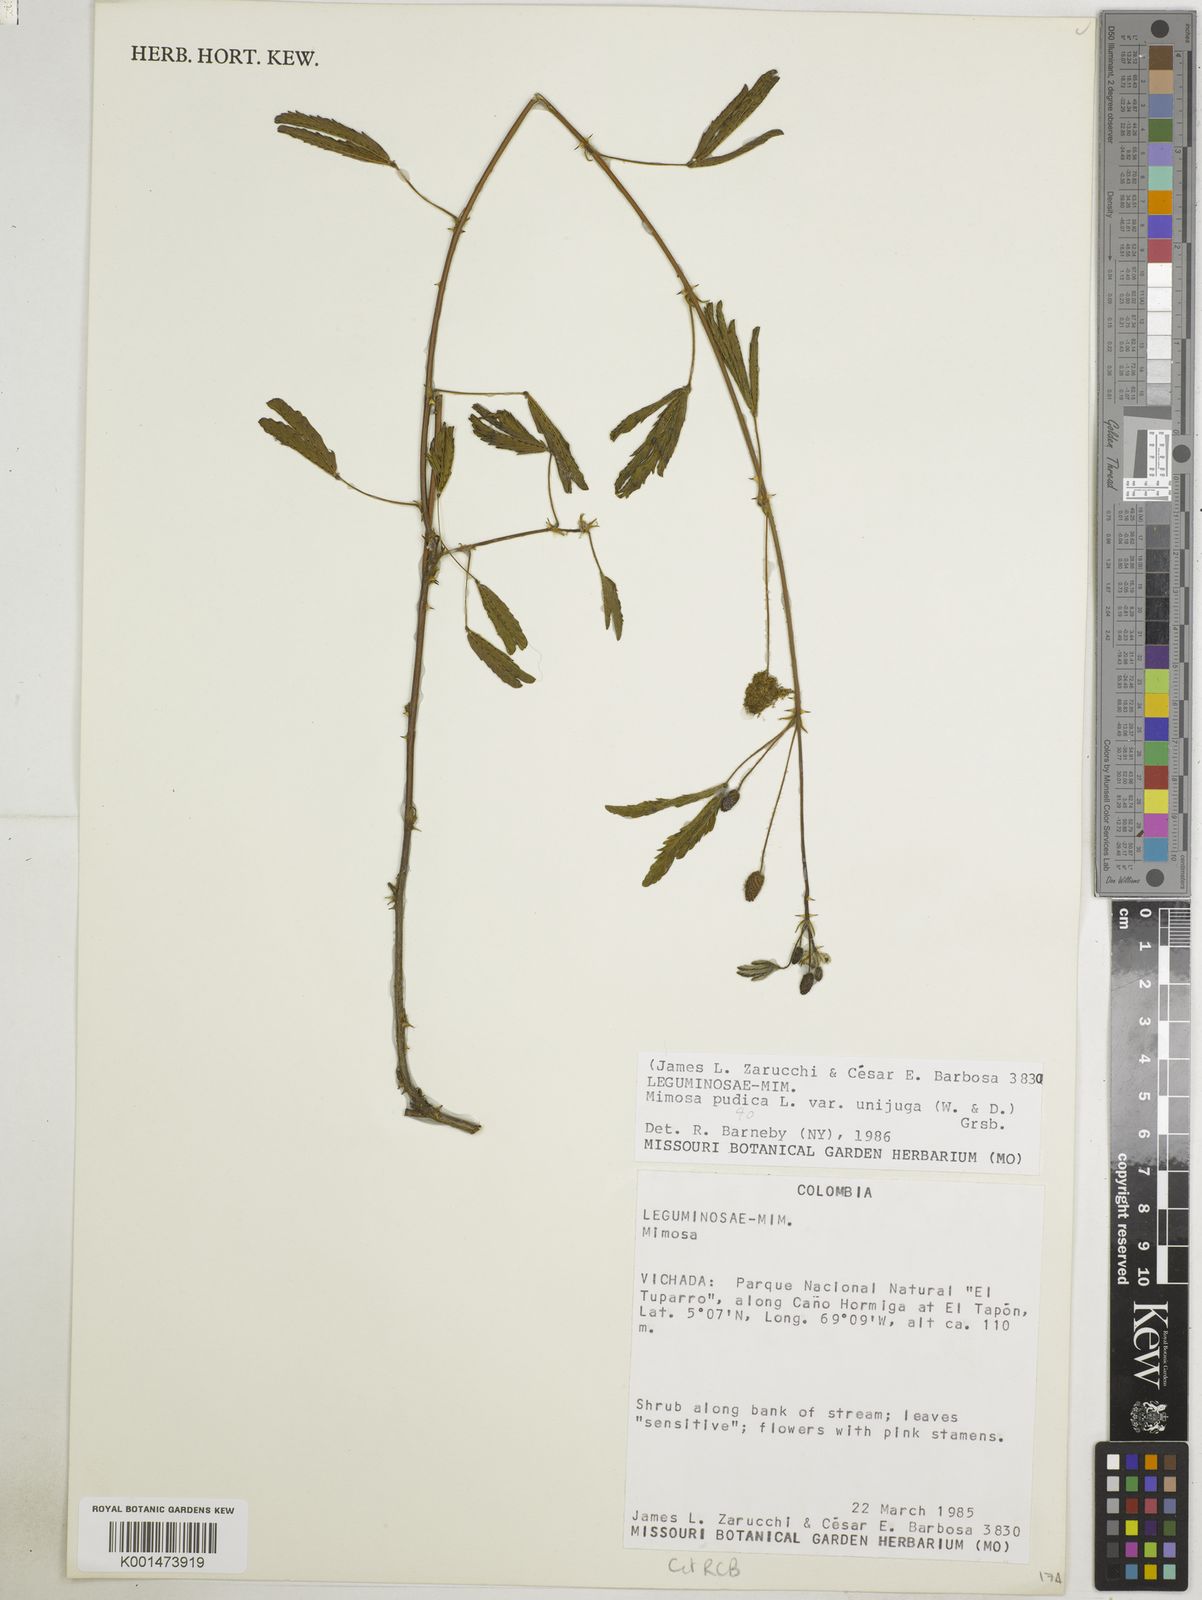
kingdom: Plantae
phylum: Tracheophyta
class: Magnoliopsida
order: Fabales
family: Fabaceae
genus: Mimosa
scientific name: Mimosa pudica
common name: Sensitive plant
